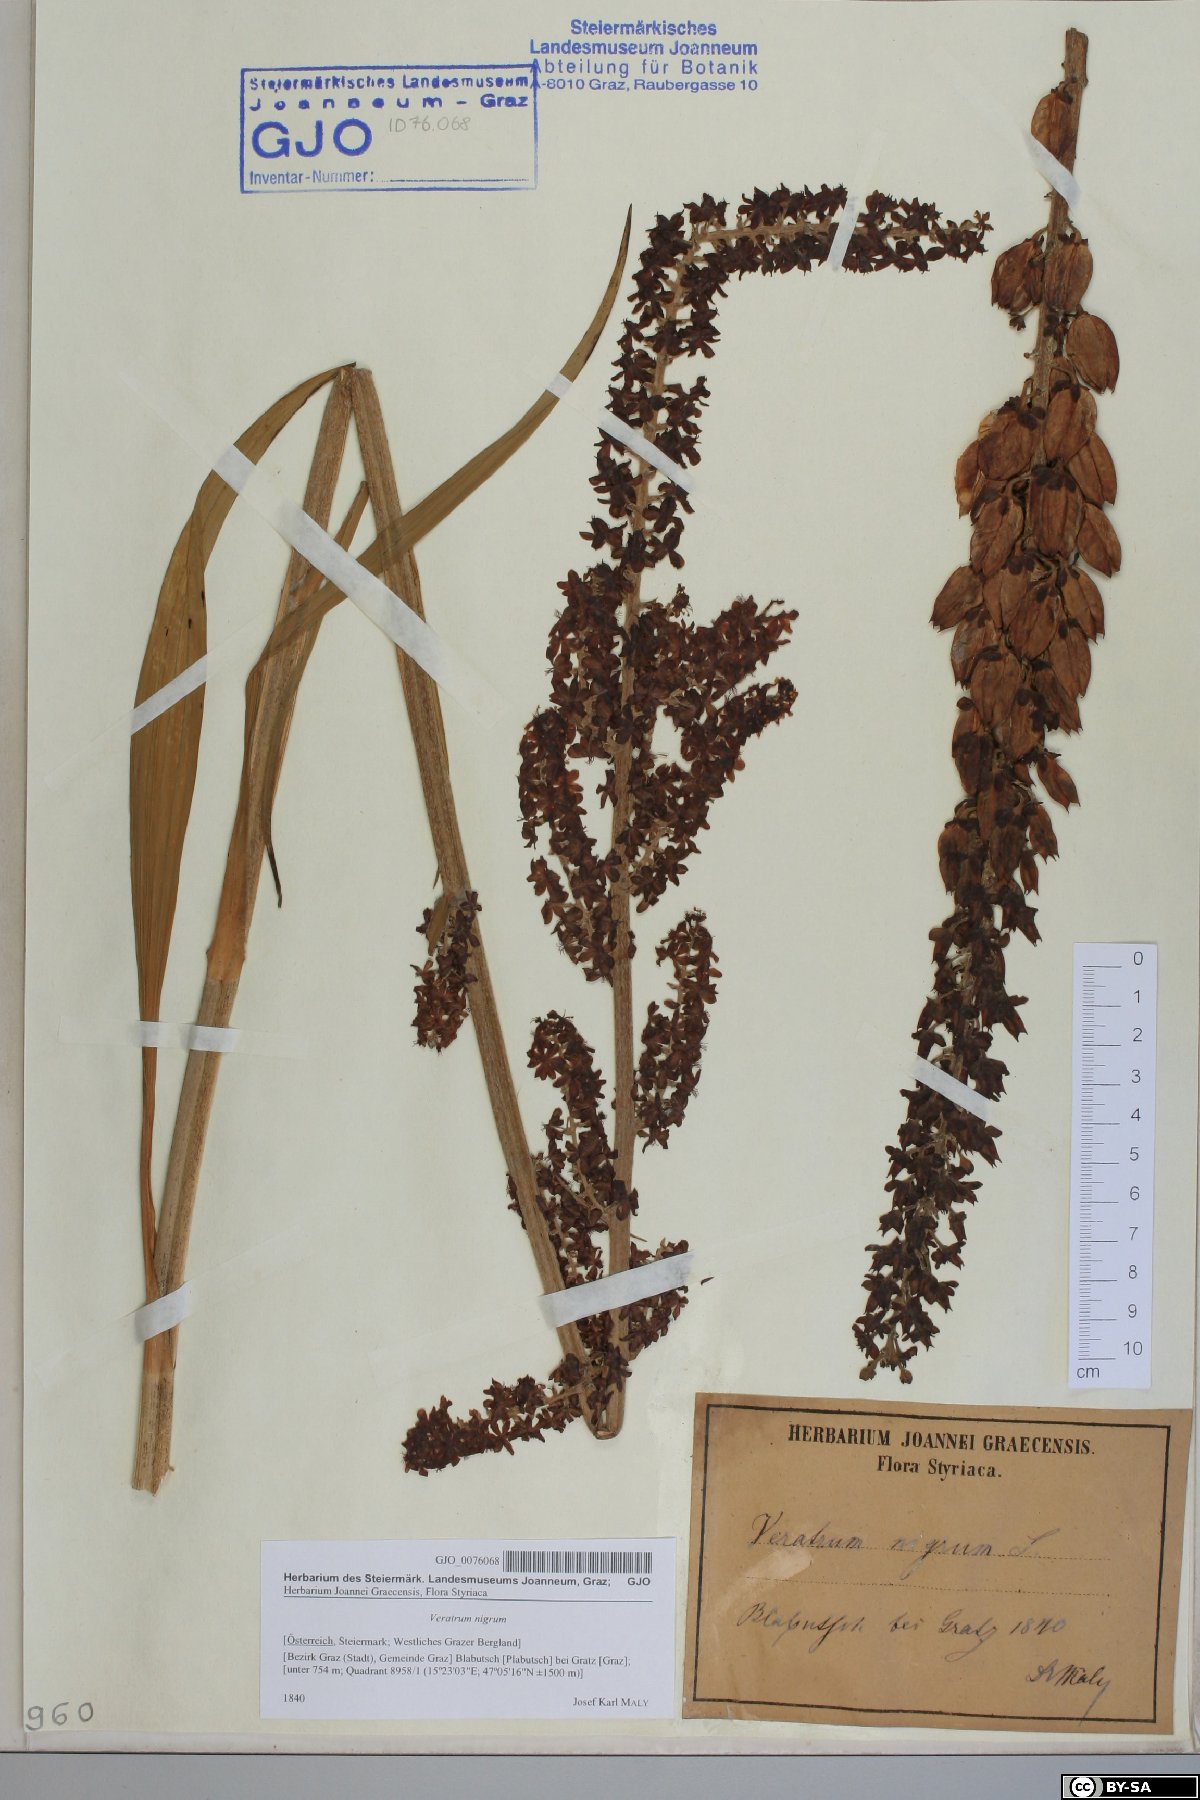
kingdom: Plantae
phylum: Tracheophyta
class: Liliopsida
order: Liliales
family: Melanthiaceae
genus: Veratrum
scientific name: Veratrum nigrum
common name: Black veratrum
